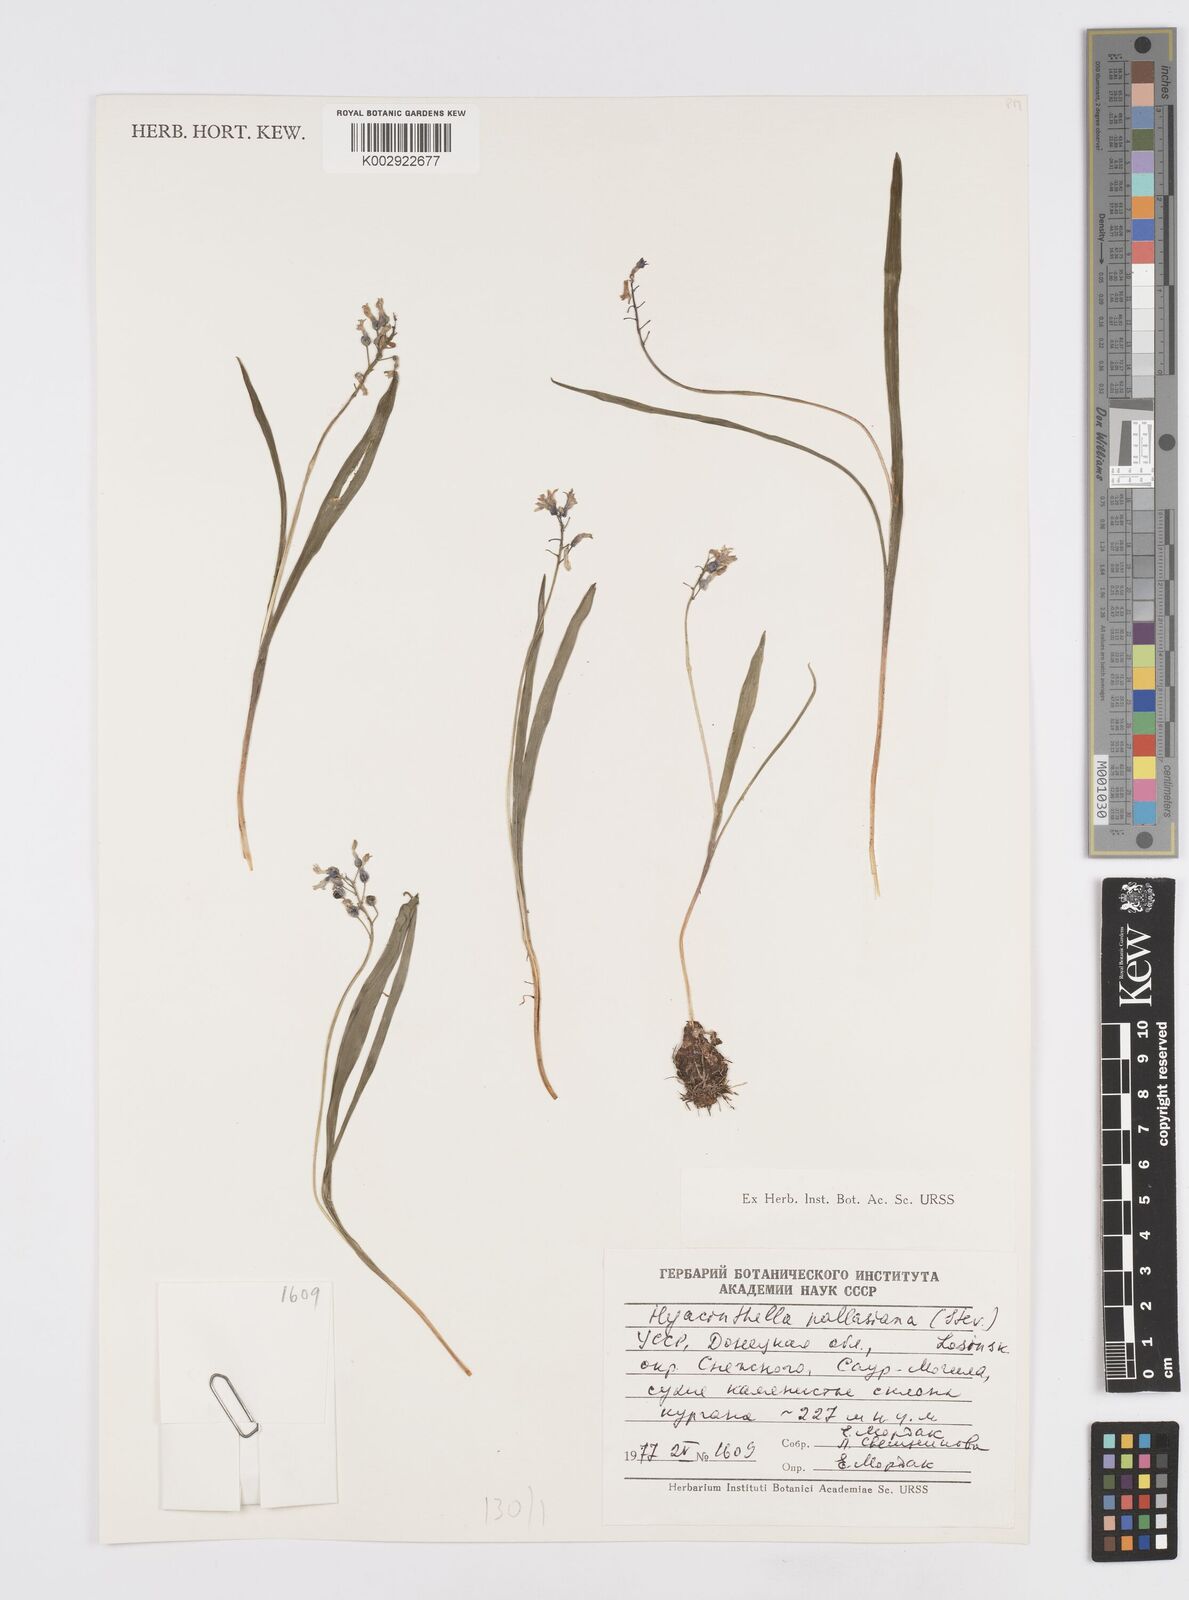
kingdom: Plantae
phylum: Tracheophyta
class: Liliopsida
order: Asparagales
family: Asparagaceae
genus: Hyacinthella
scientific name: Hyacinthella pallasiana
